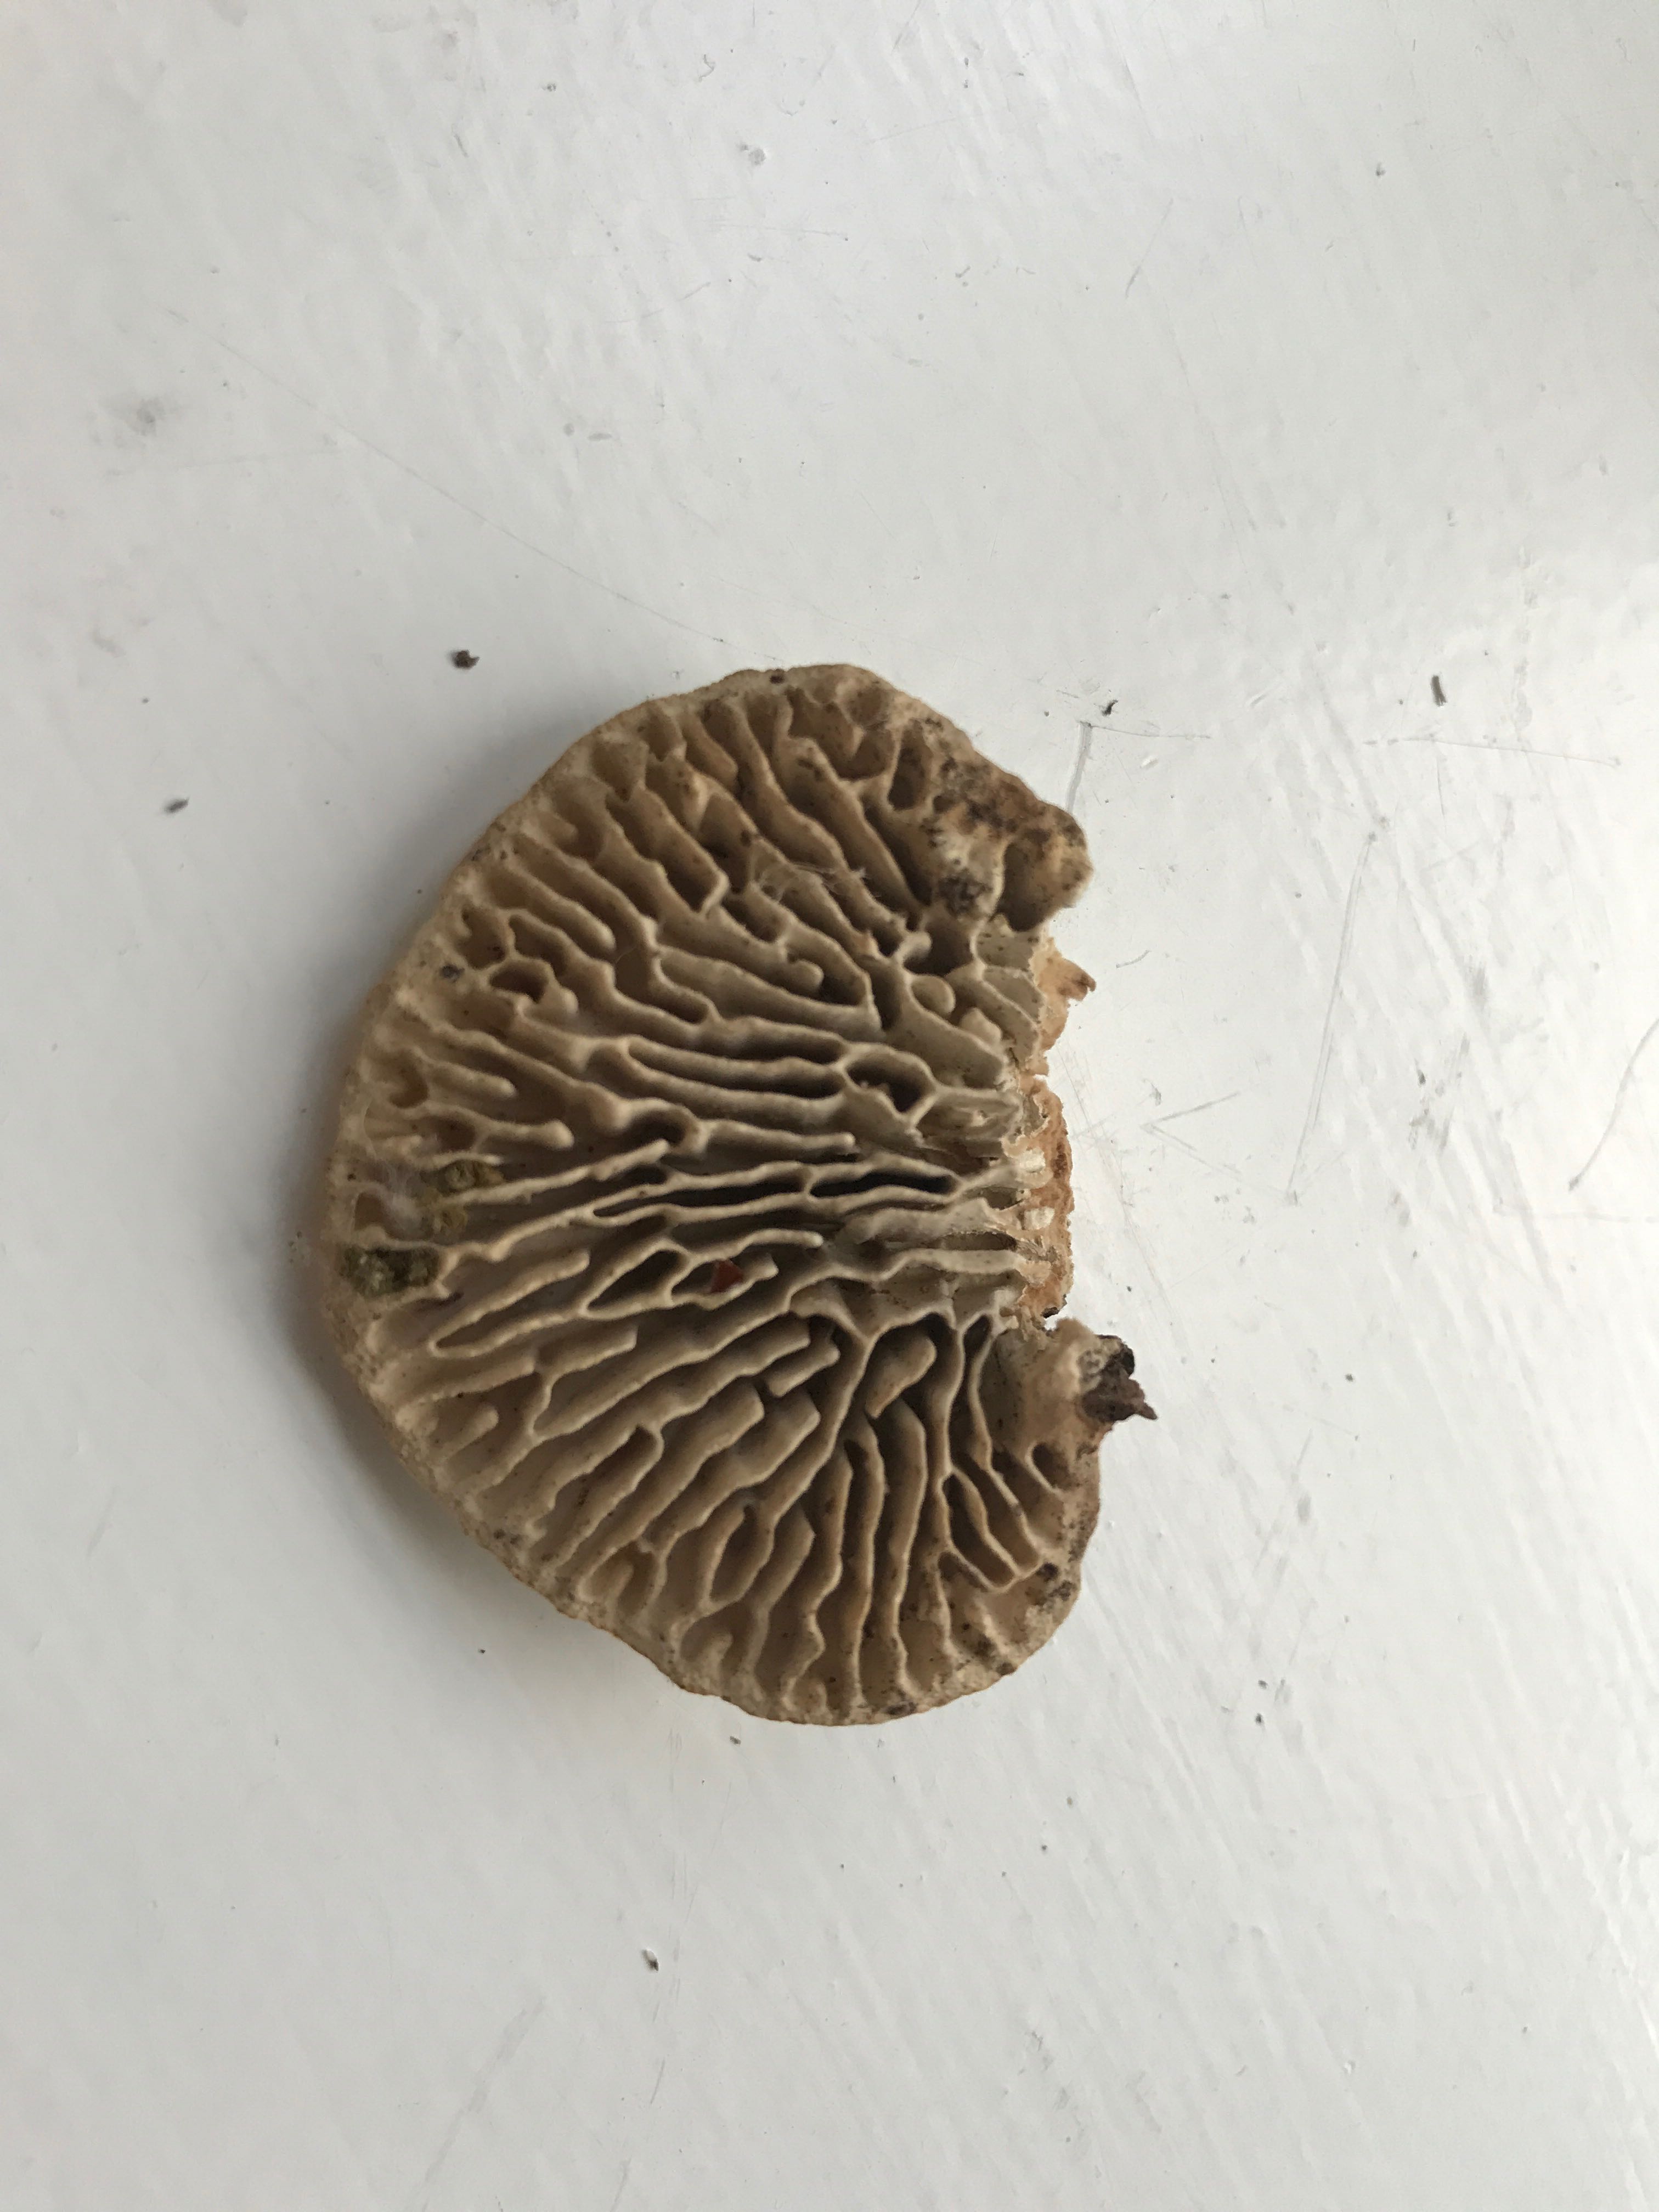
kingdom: Fungi
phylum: Basidiomycota
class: Agaricomycetes
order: Polyporales
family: Fomitopsidaceae
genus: Daedalea
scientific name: Daedalea quercina
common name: ege-labyrintsvamp
